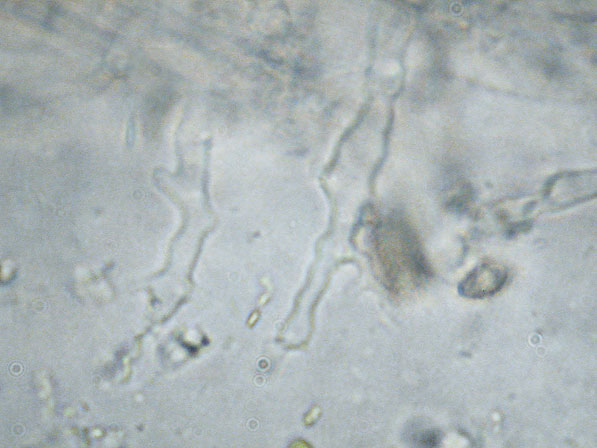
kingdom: Fungi
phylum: Basidiomycota
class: Agaricomycetes
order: Agaricales
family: Marasmiaceae
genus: Calyptella
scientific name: Calyptella gibbosa
